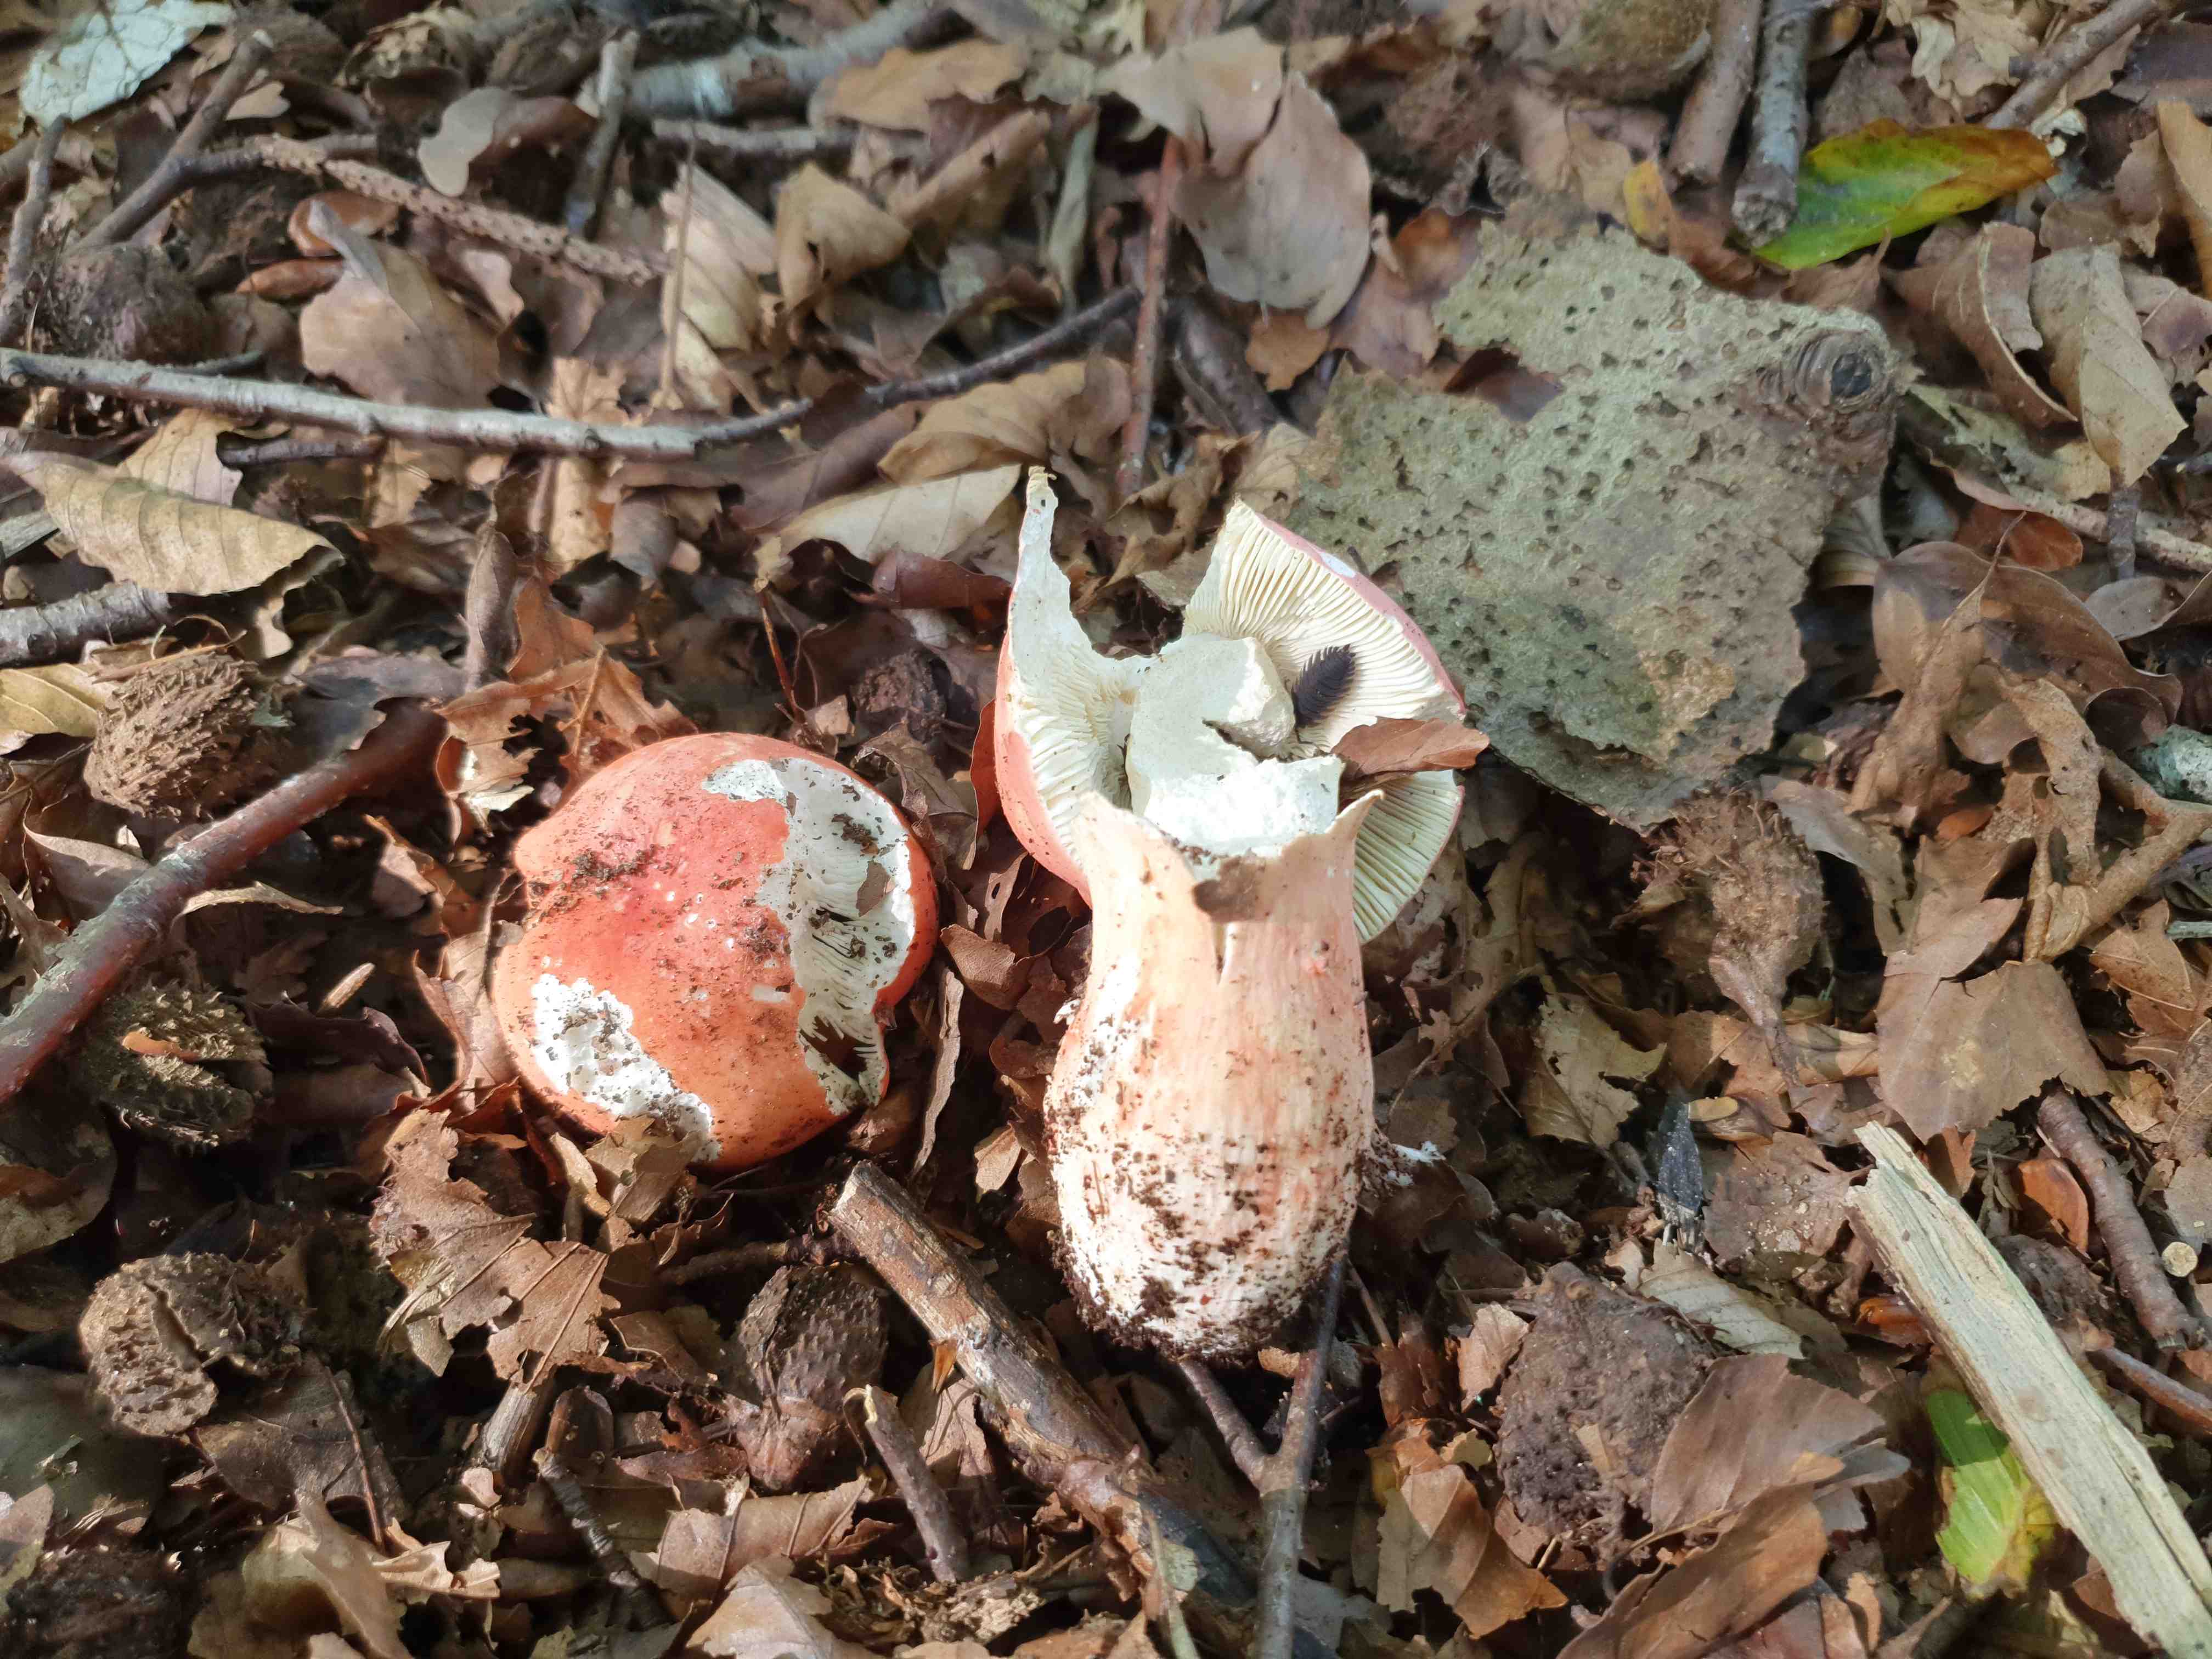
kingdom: Fungi
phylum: Basidiomycota
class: Agaricomycetes
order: Russulales
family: Russulaceae
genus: Russula
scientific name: Russula rosea
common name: fastkødet skørhat
